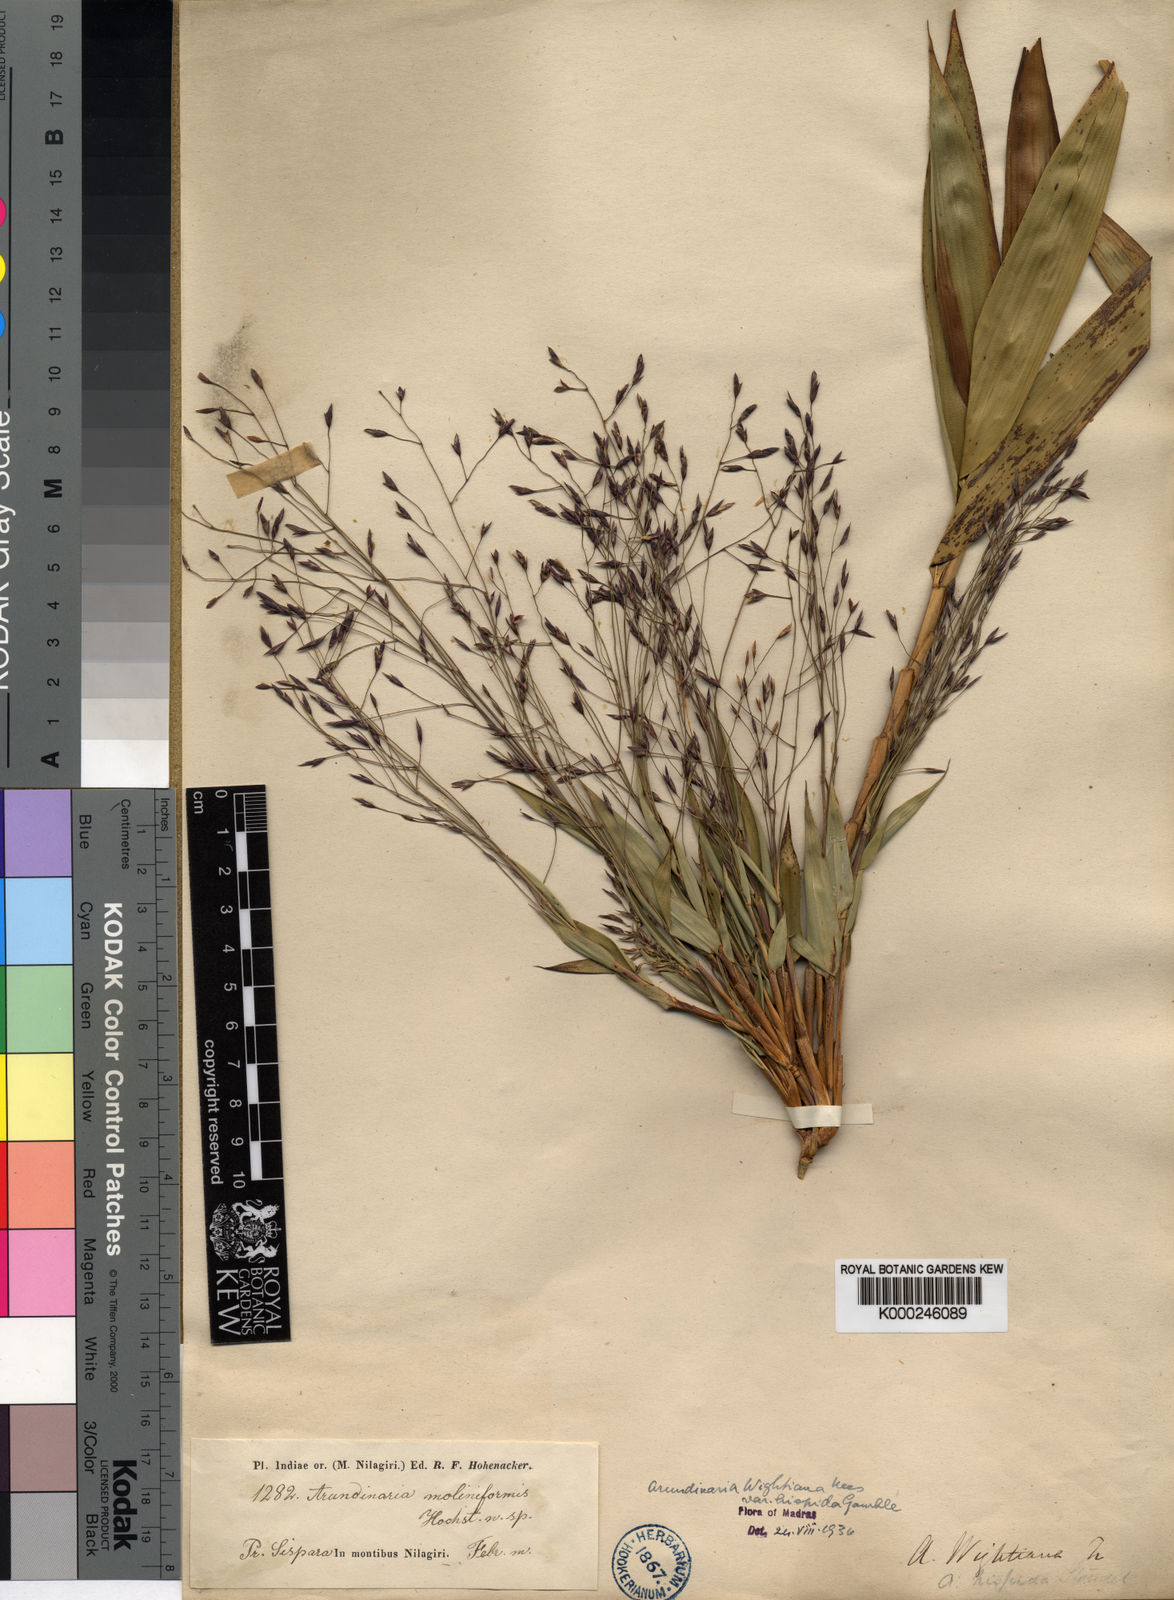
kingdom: Plantae
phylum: Tracheophyta
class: Liliopsida
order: Poales
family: Poaceae
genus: Kuruna
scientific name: Kuruna wightiana
